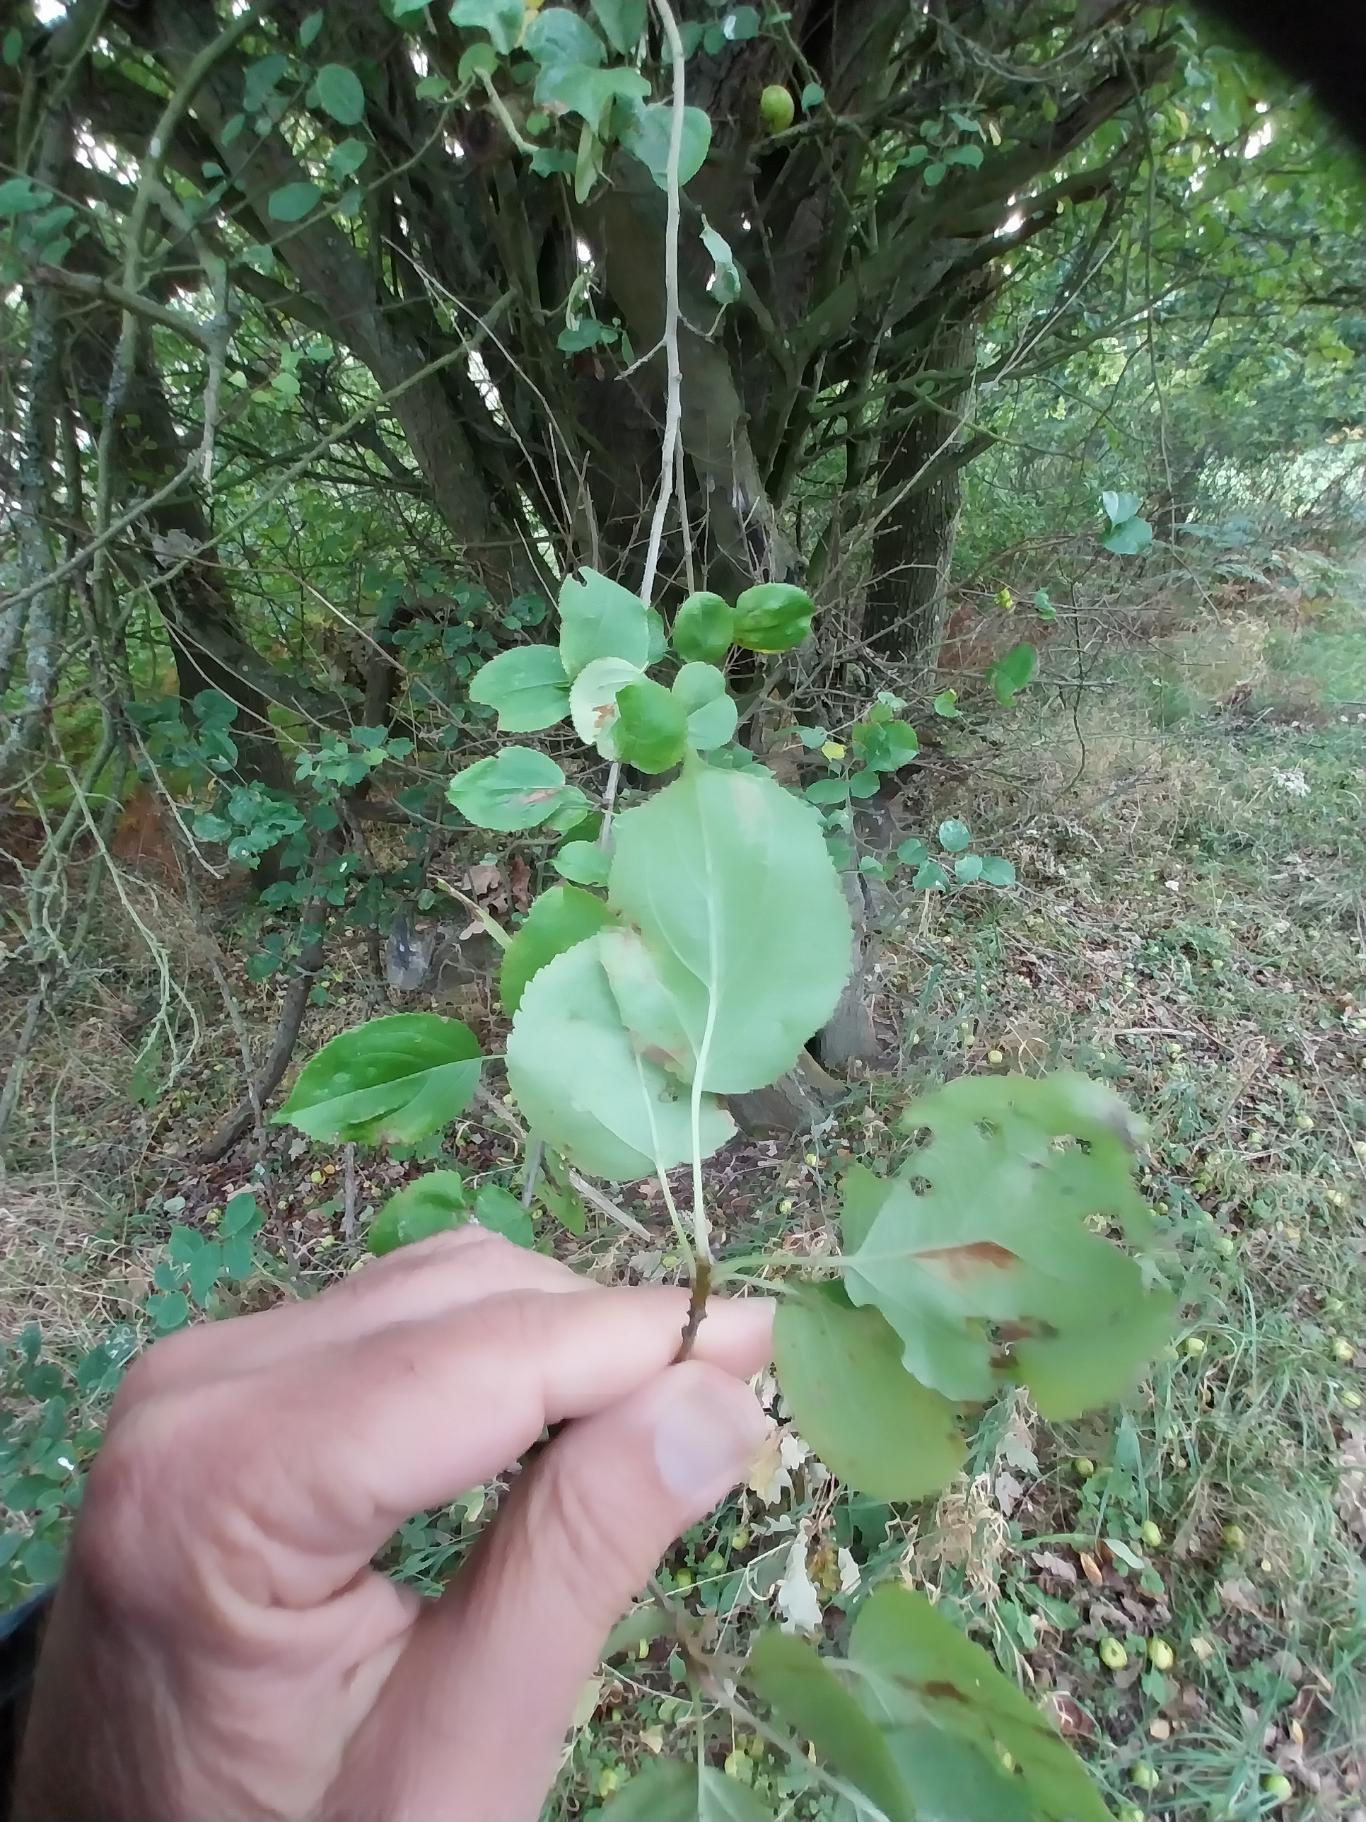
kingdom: Plantae
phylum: Tracheophyta
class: Magnoliopsida
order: Rosales
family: Rosaceae
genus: Malus
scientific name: Malus sylvestris
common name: Skov-æble
